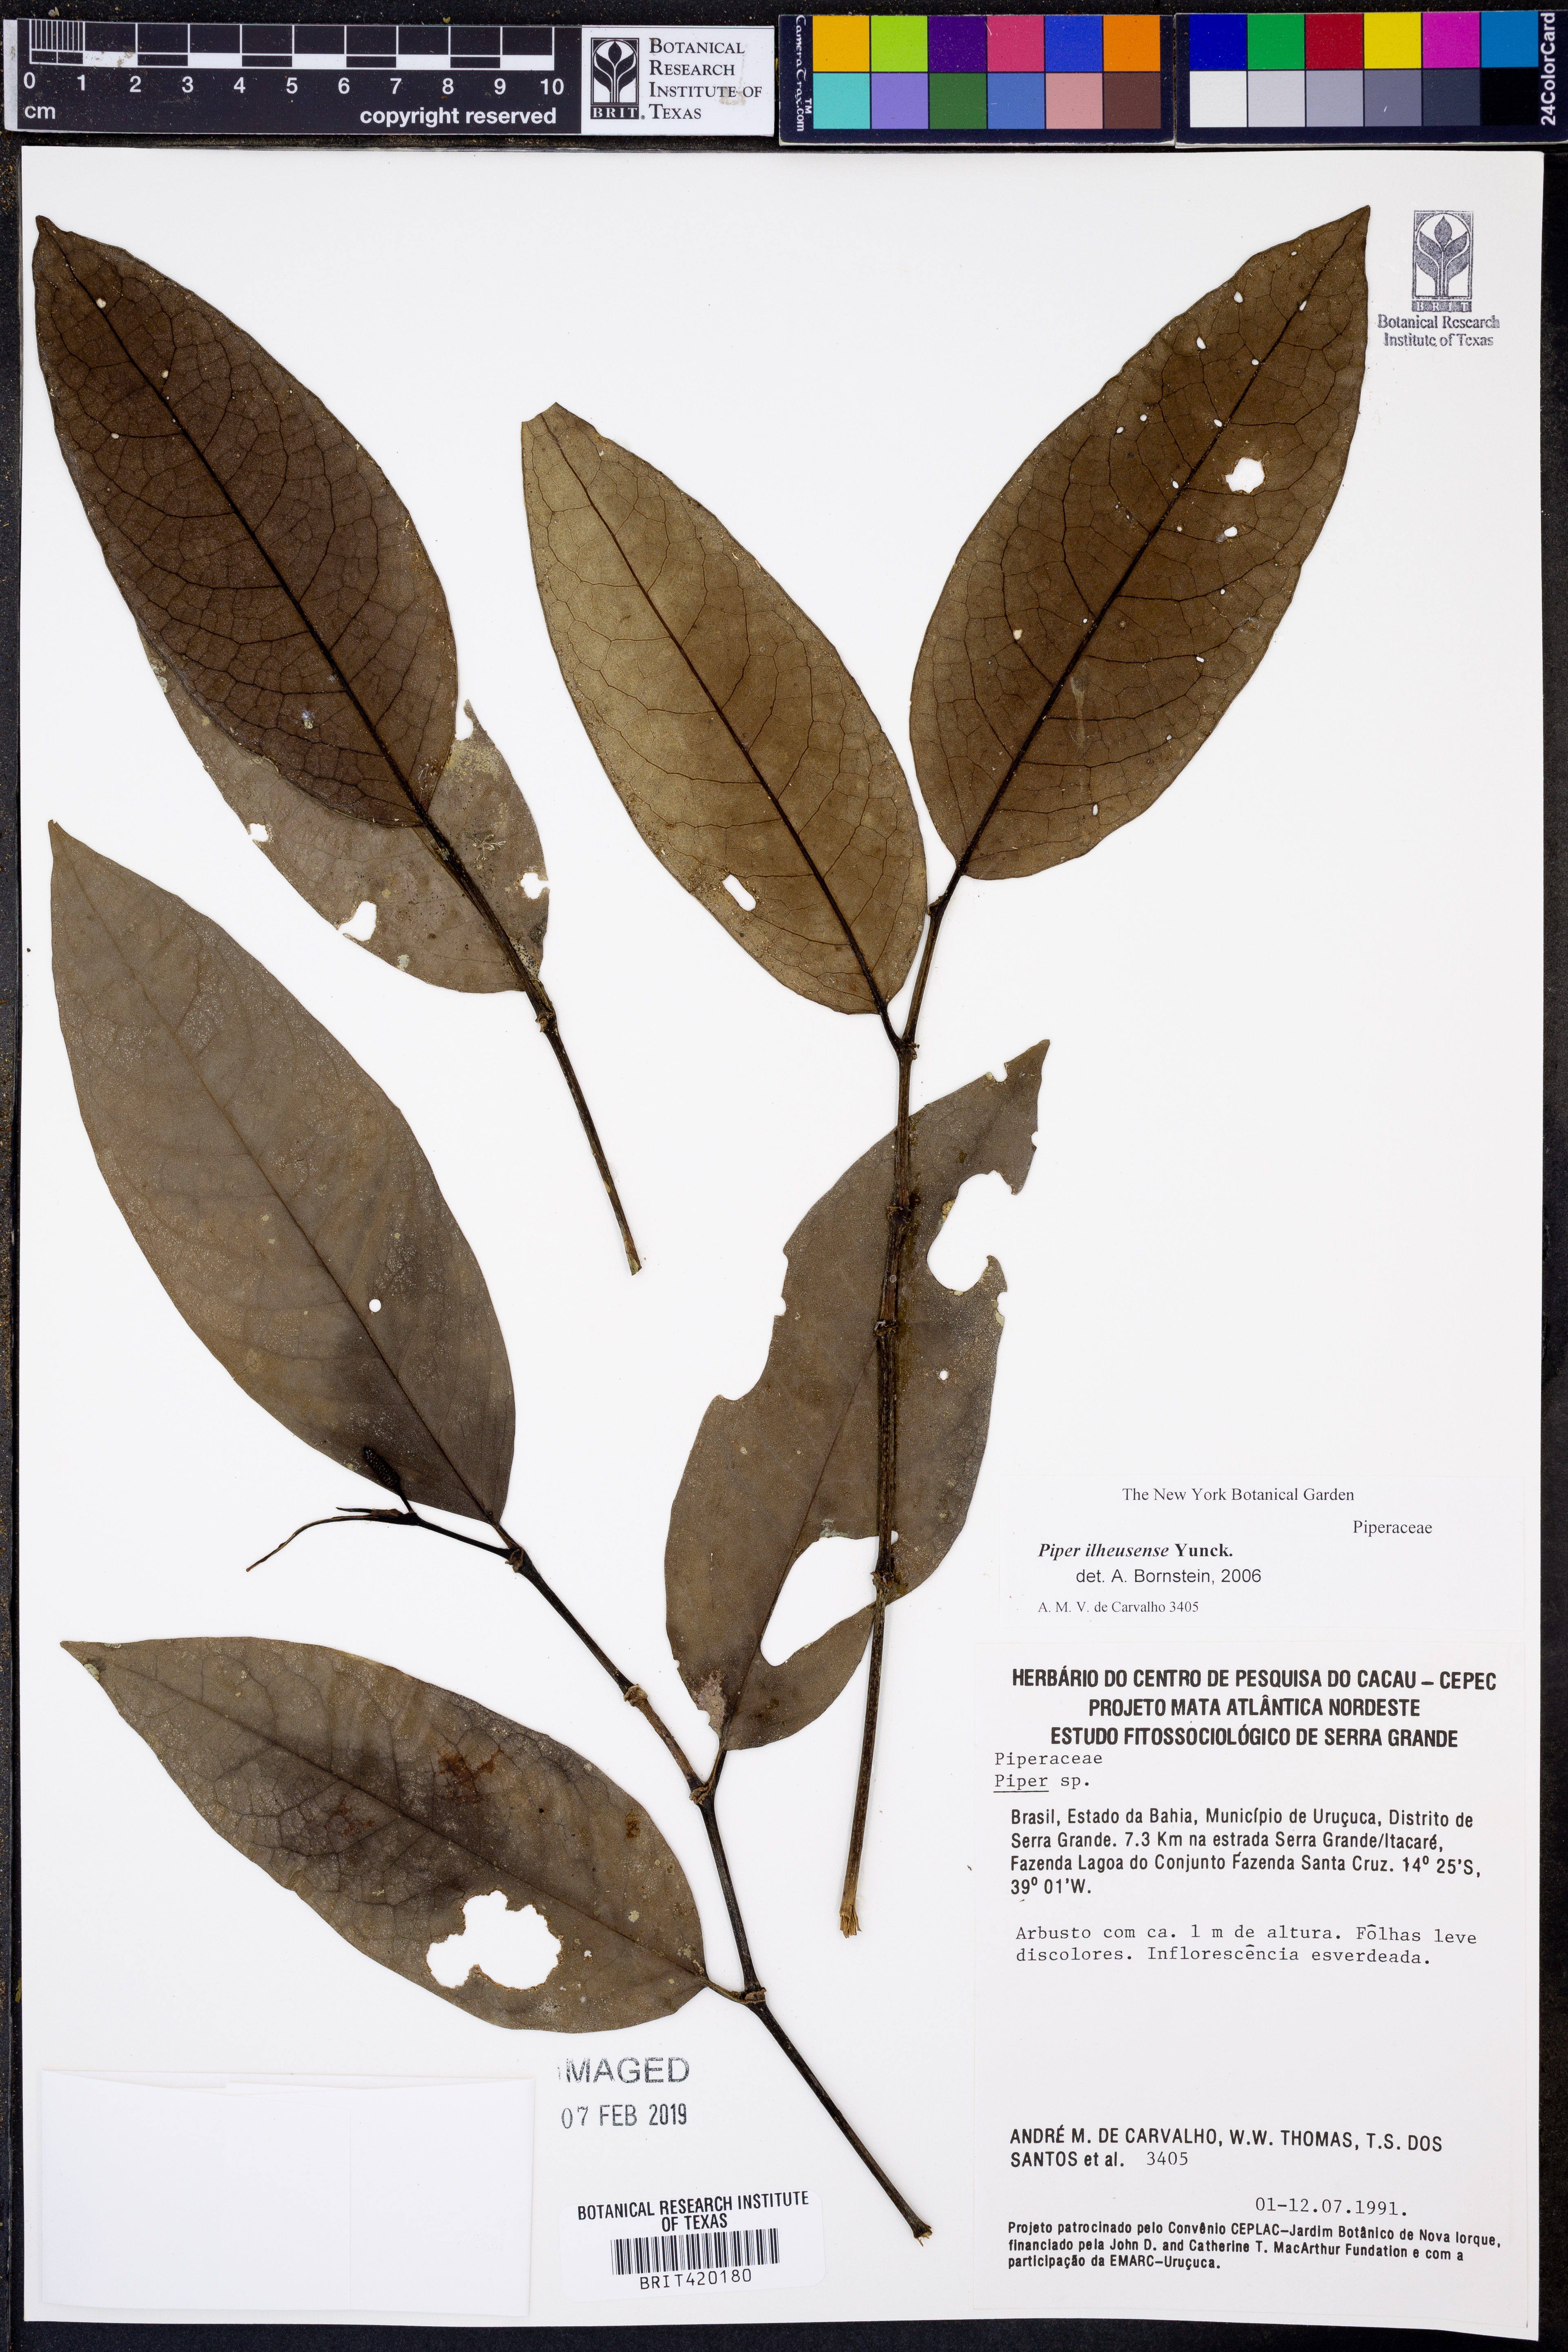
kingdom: Plantae
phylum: Tracheophyta
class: Magnoliopsida
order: Piperales
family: Piperaceae
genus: Piper
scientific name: Piper
